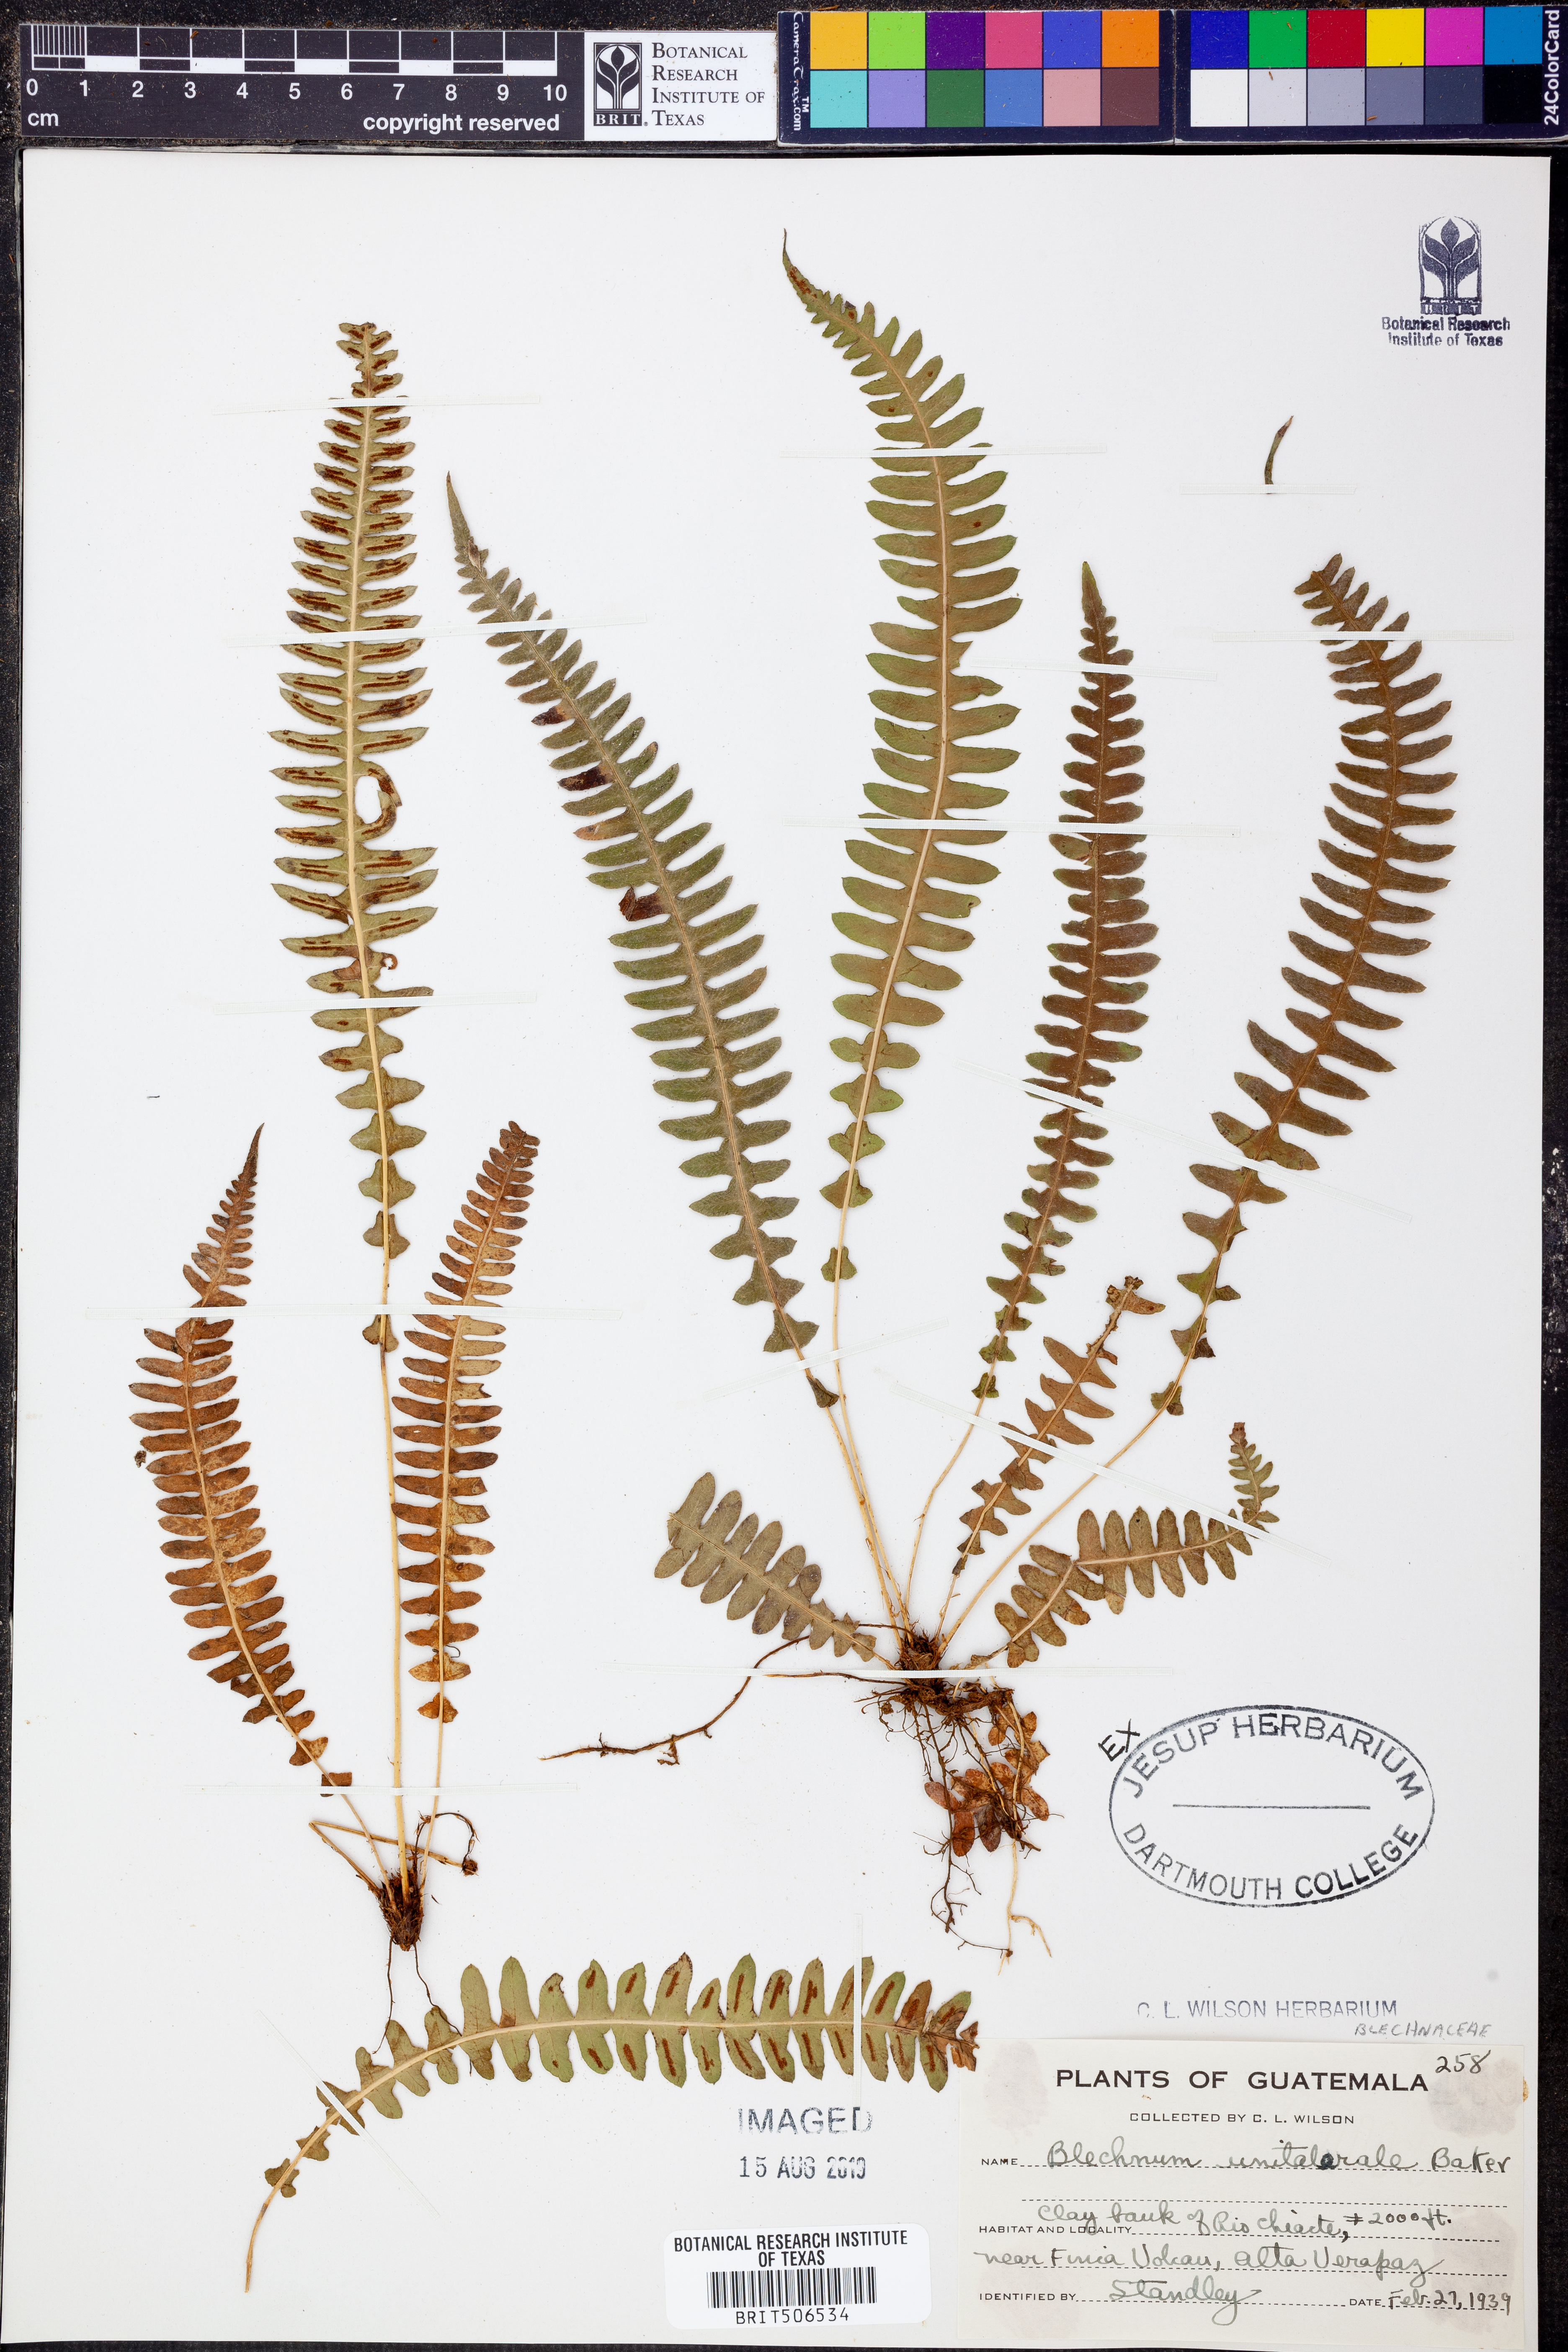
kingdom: Plantae
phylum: Tracheophyta
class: Polypodiopsida
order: Polypodiales
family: Blechnaceae
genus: Blechnum
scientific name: Blechnum polypodioides
